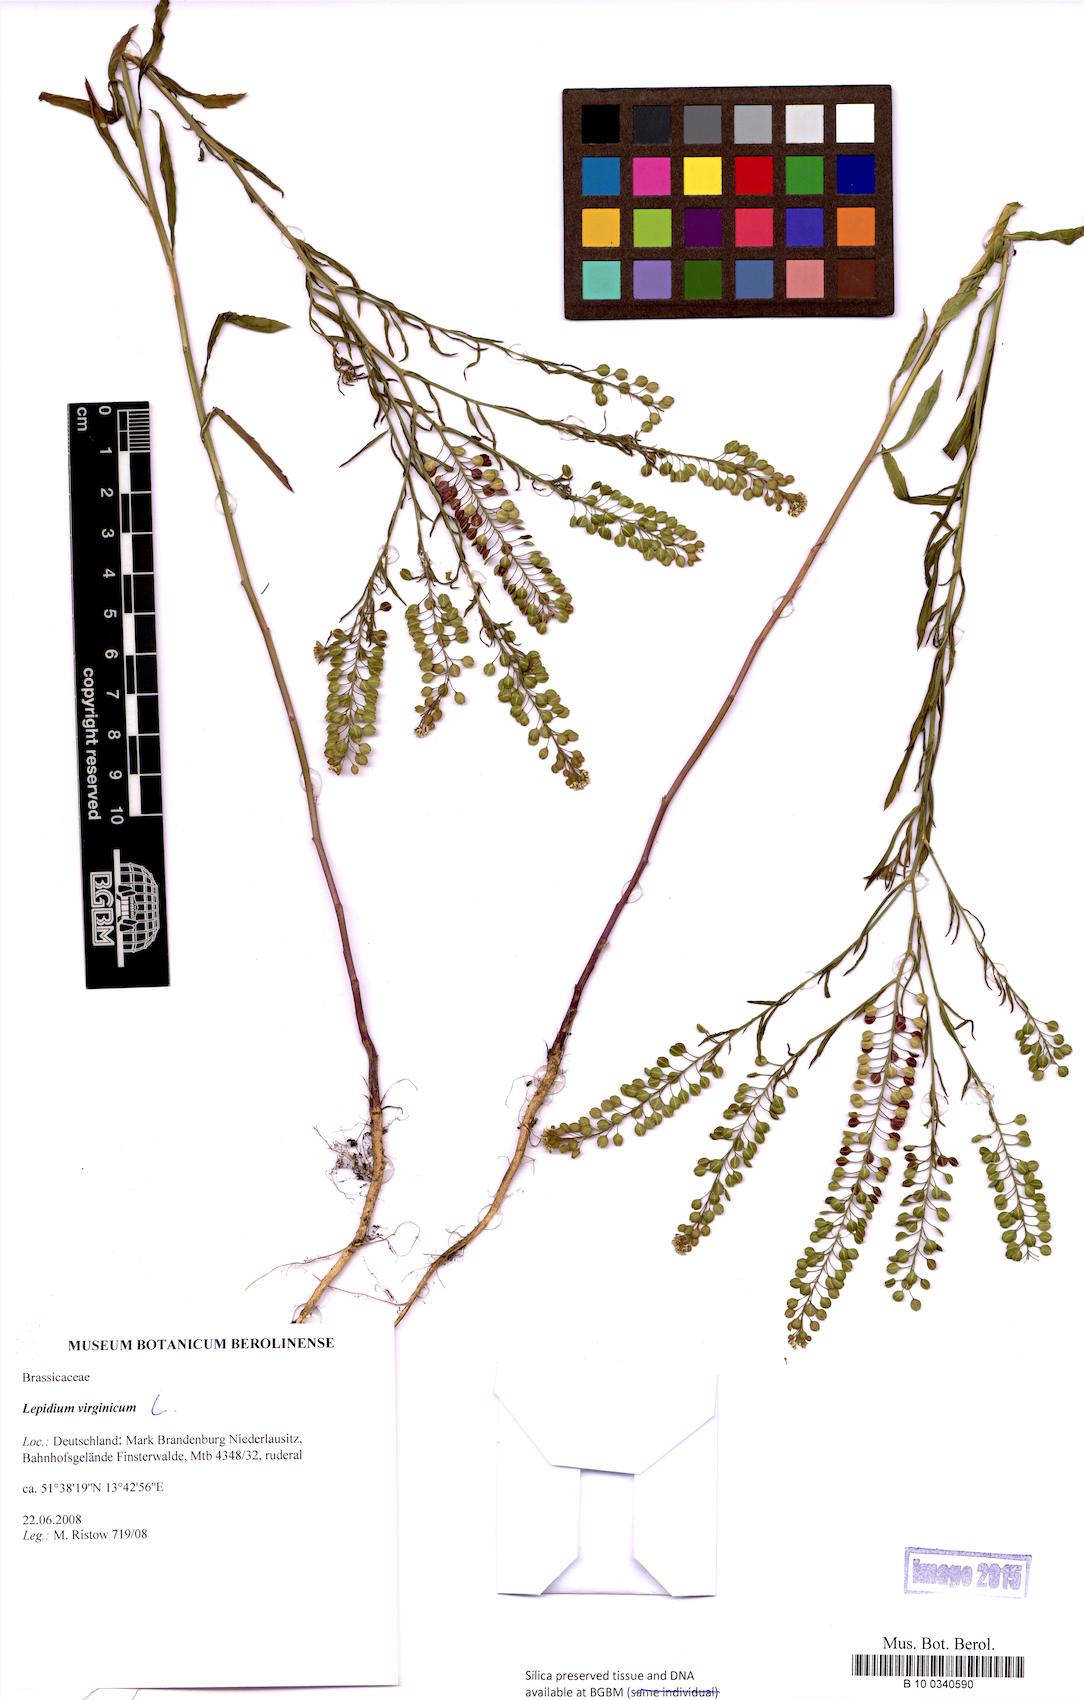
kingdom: Plantae
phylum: Tracheophyta
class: Magnoliopsida
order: Brassicales
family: Brassicaceae
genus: Lepidium
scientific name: Lepidium virginicum
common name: Least pepperwort
